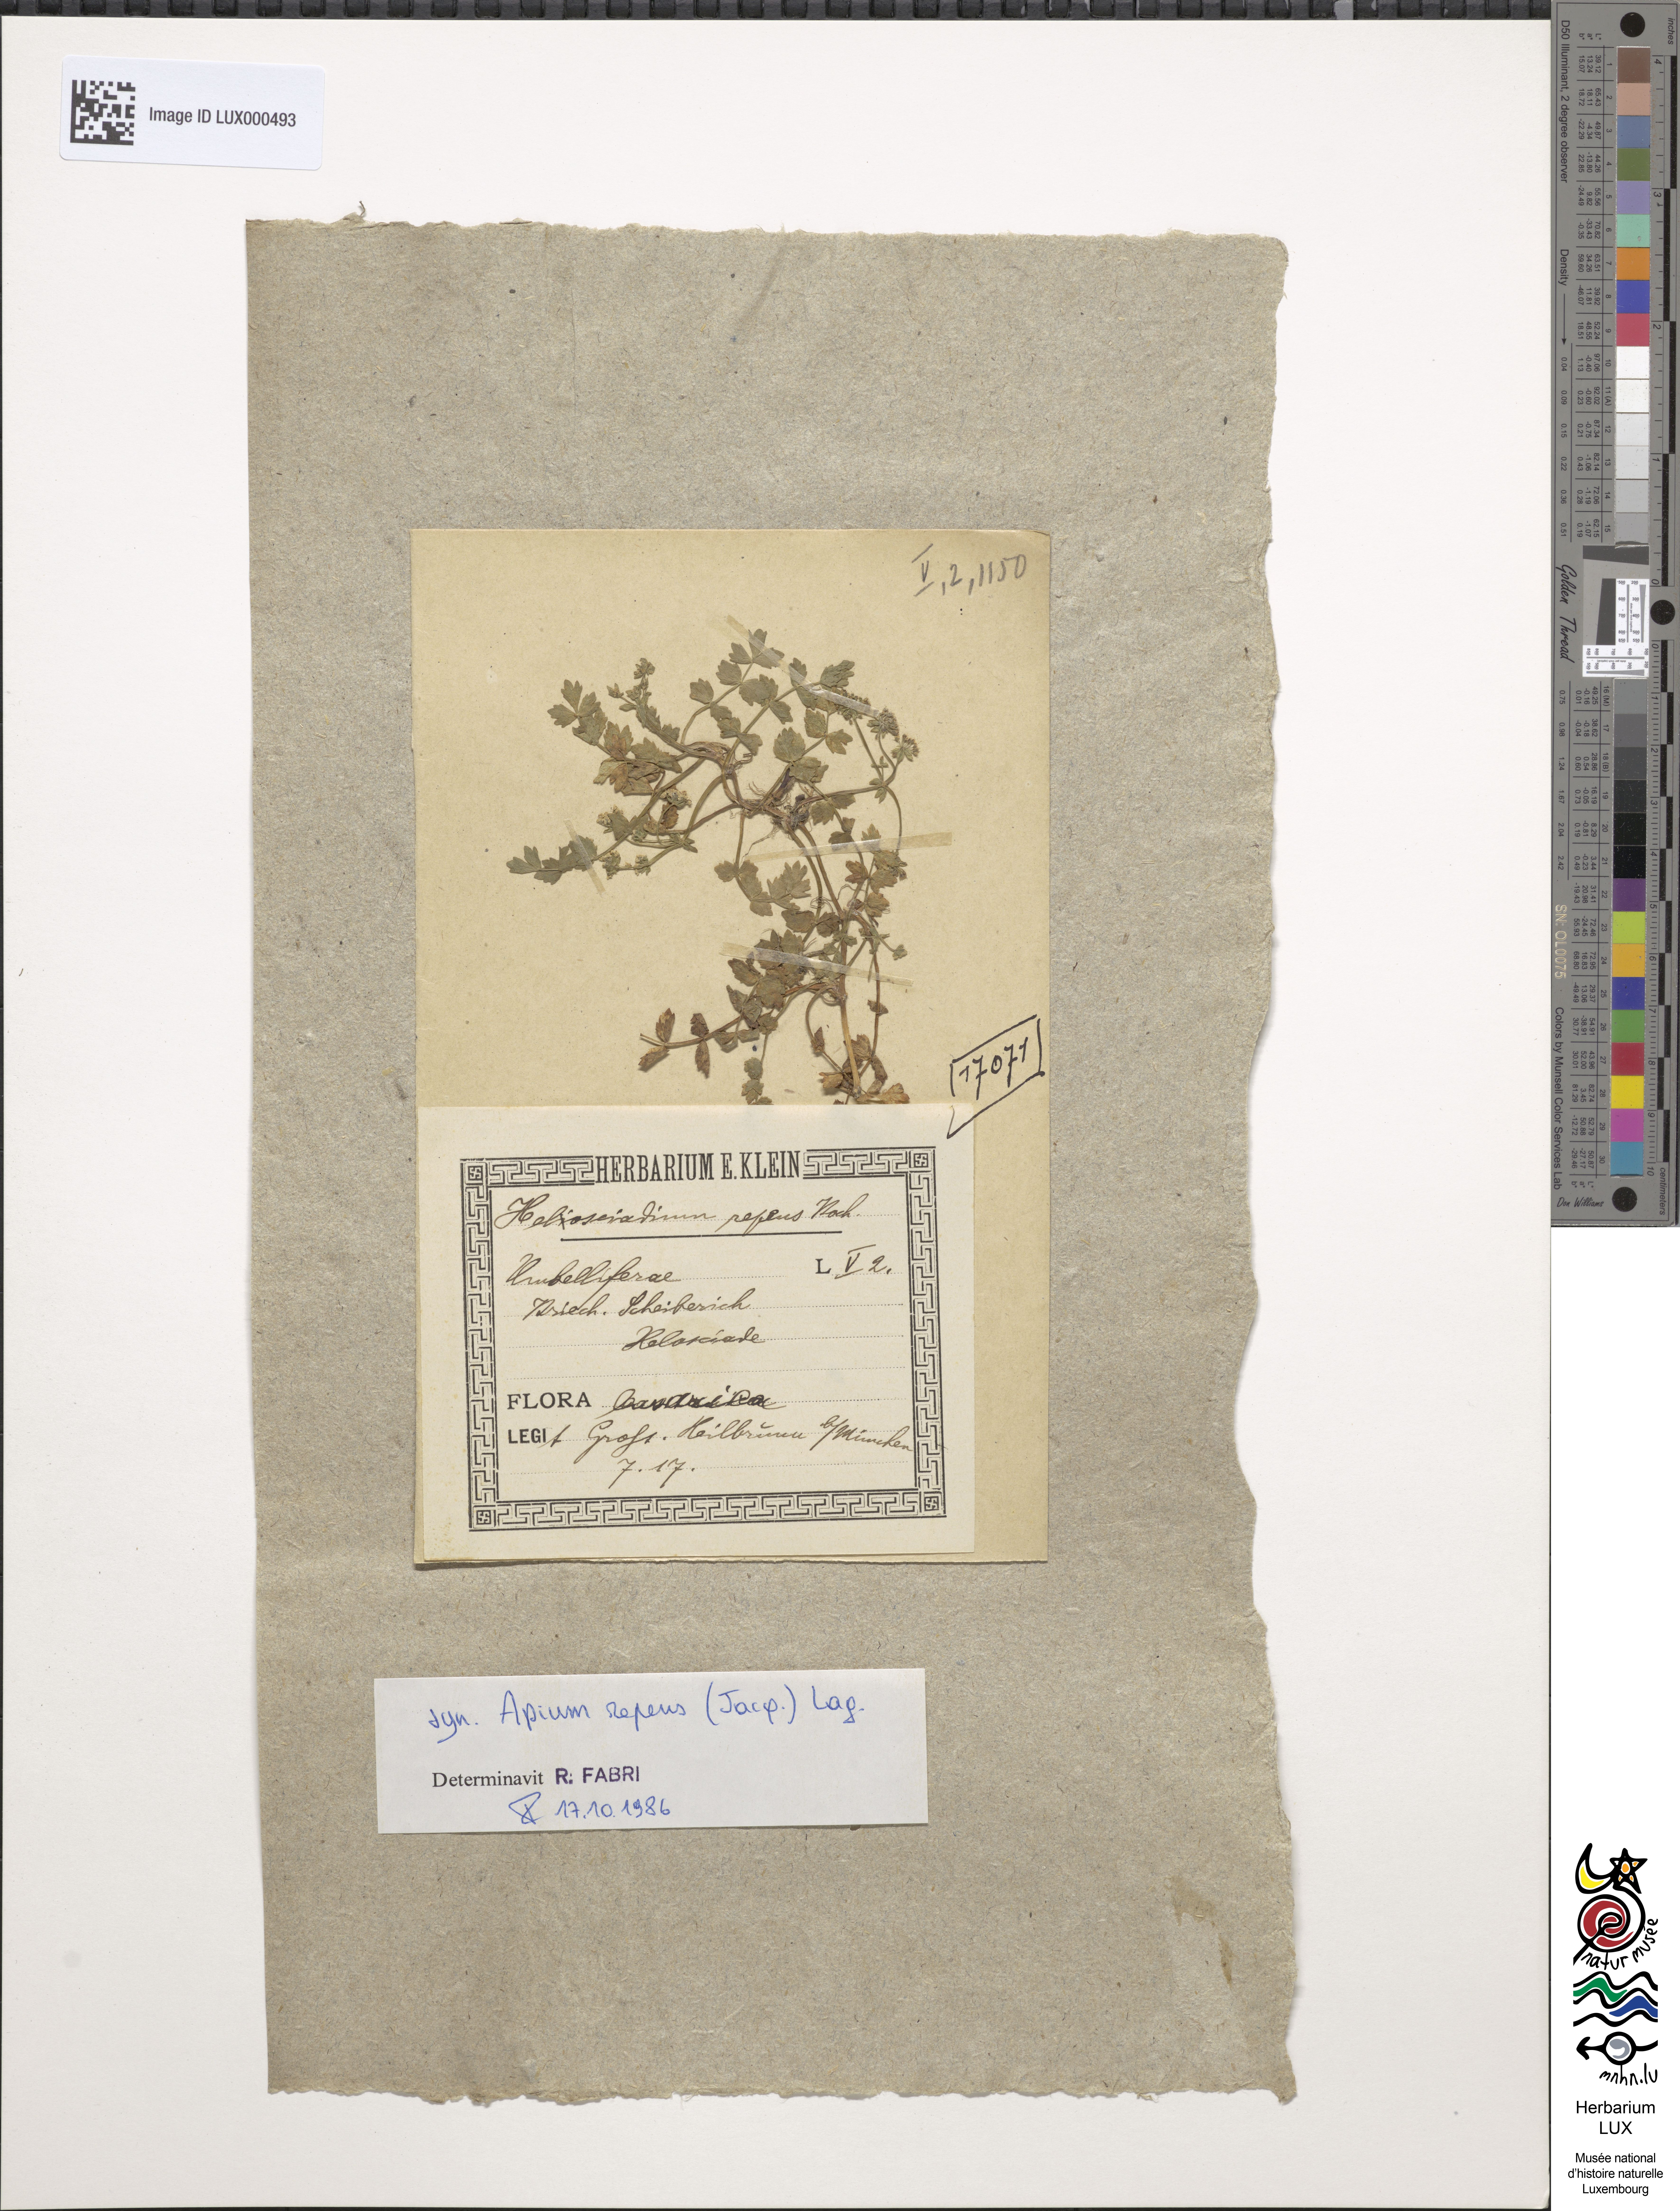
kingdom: Plantae
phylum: Tracheophyta
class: Magnoliopsida
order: Apiales
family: Apiaceae
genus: Helosciadium
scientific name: Helosciadium repens
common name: Creeping marshwort
